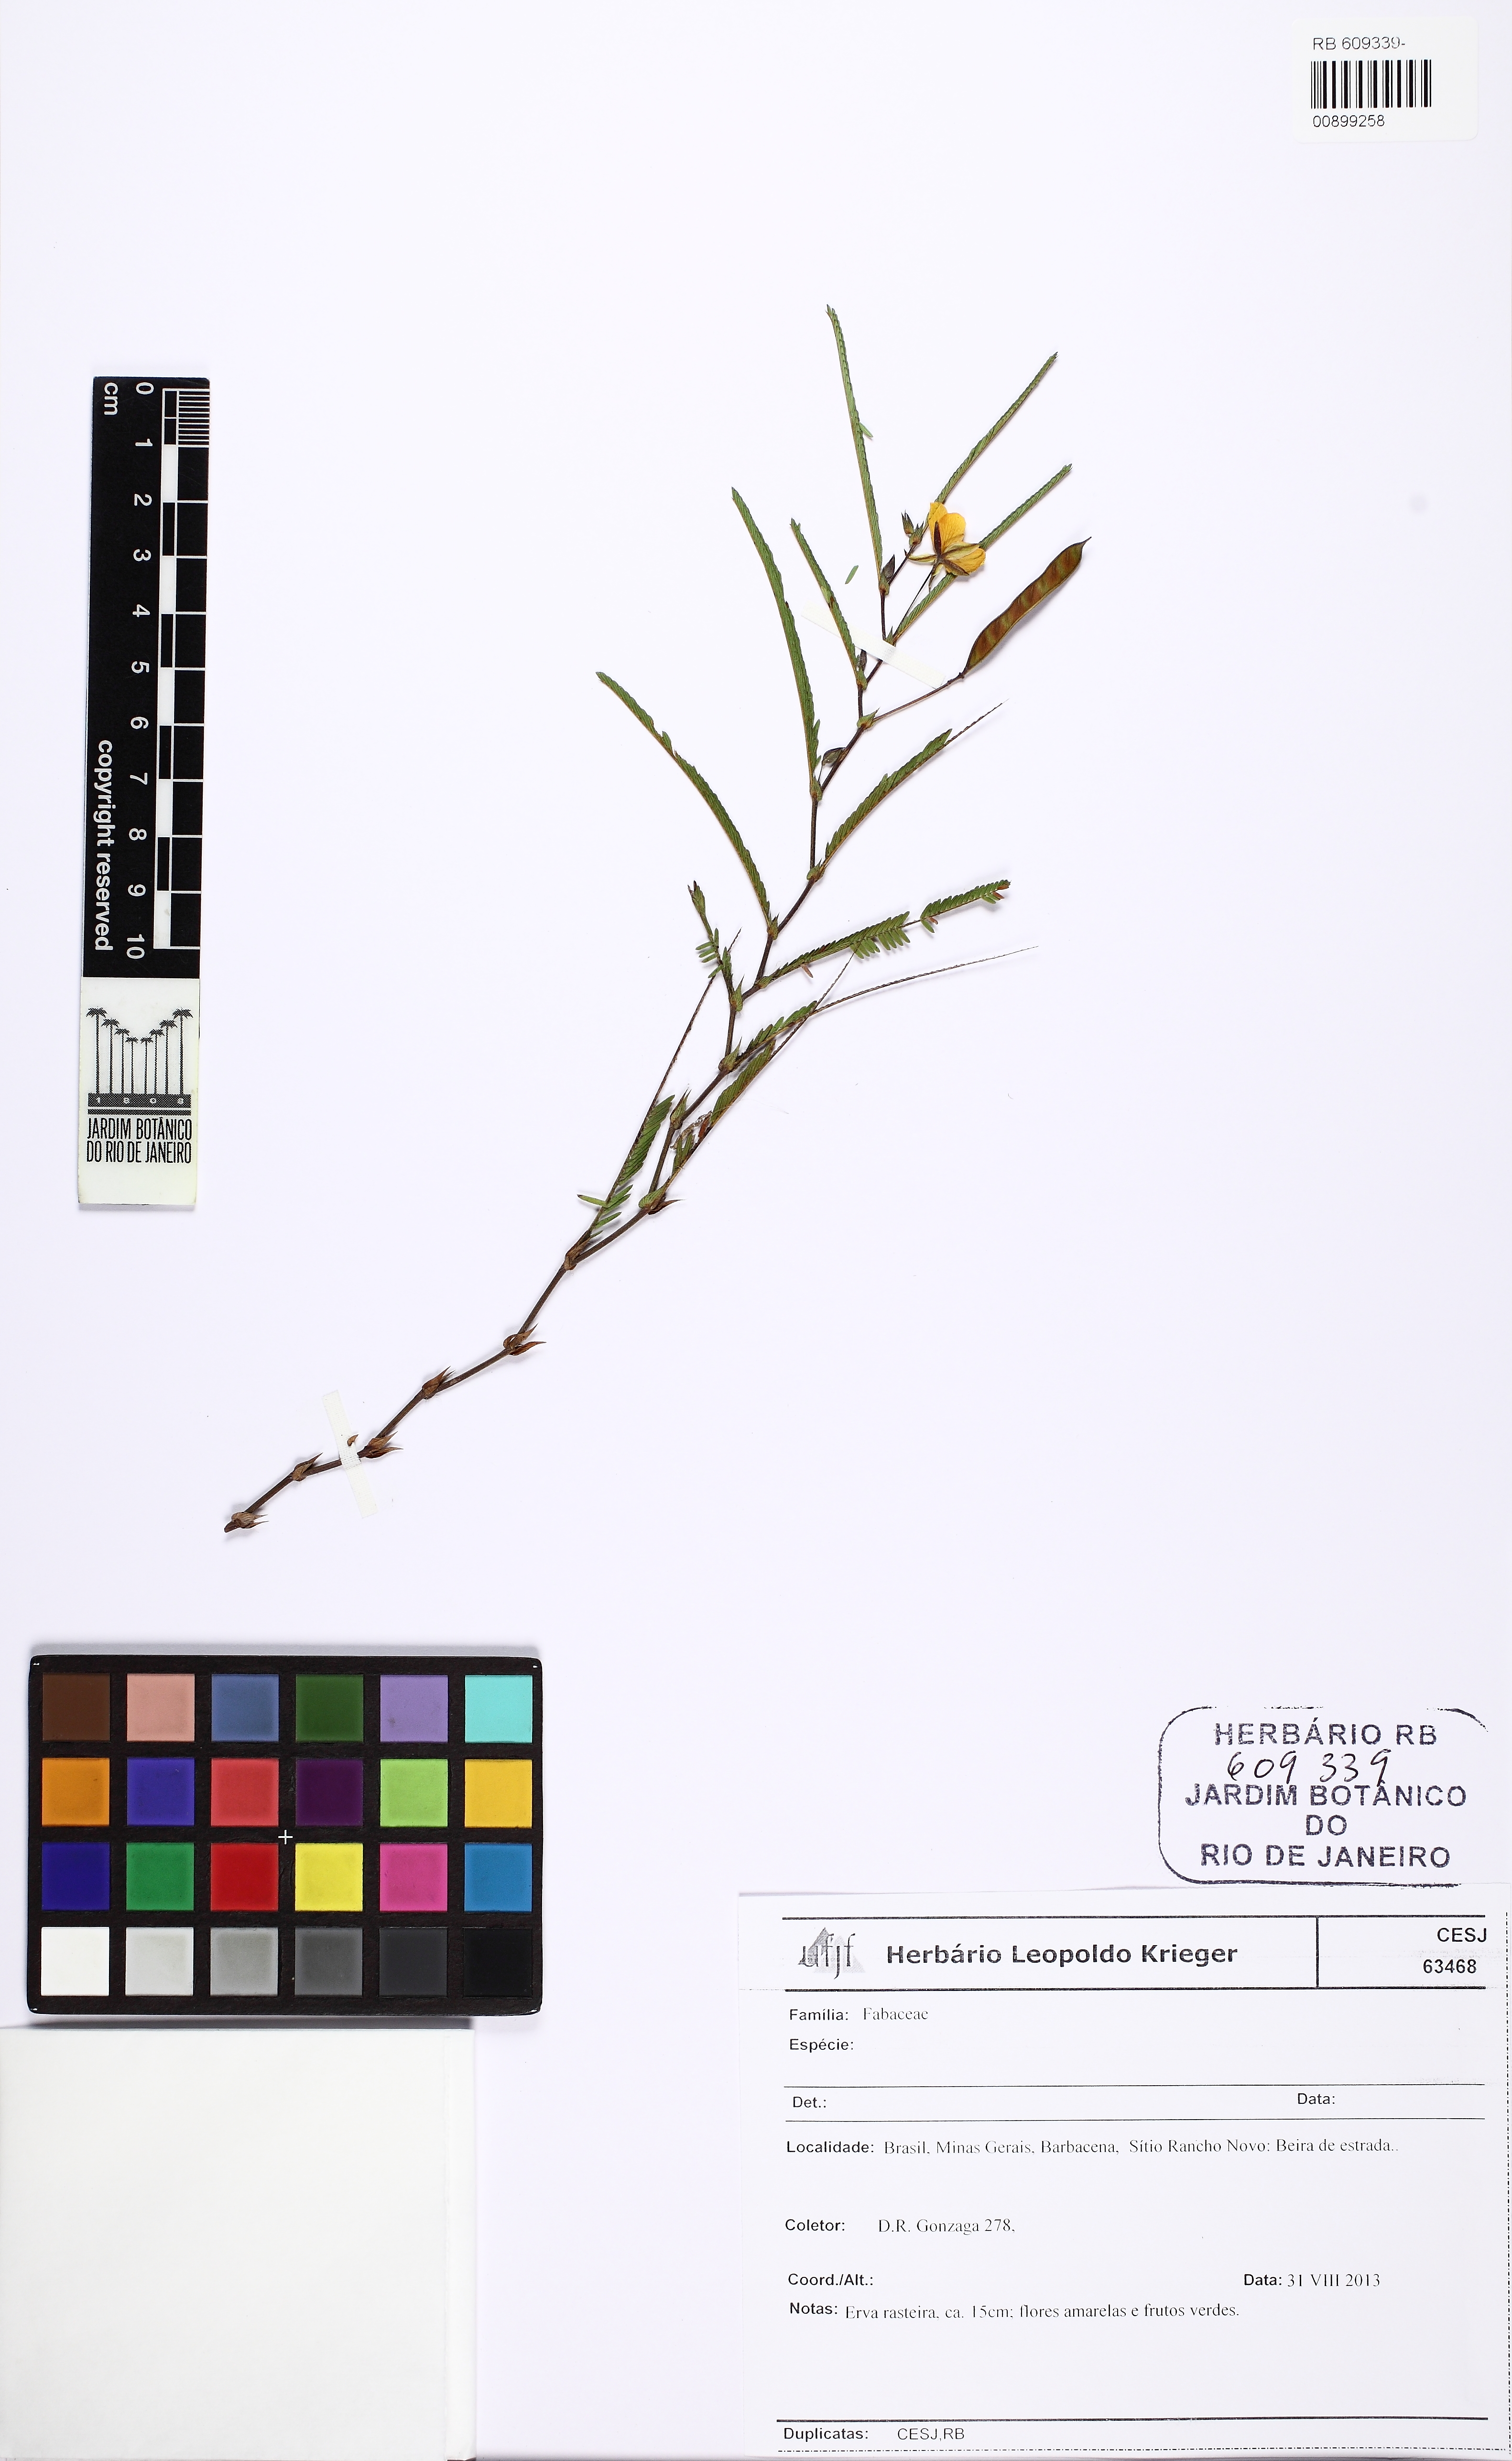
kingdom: Plantae
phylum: Tracheophyta
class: Magnoliopsida
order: Fabales
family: Fabaceae
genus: Chamaecrista
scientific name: Chamaecrista flexuosa
